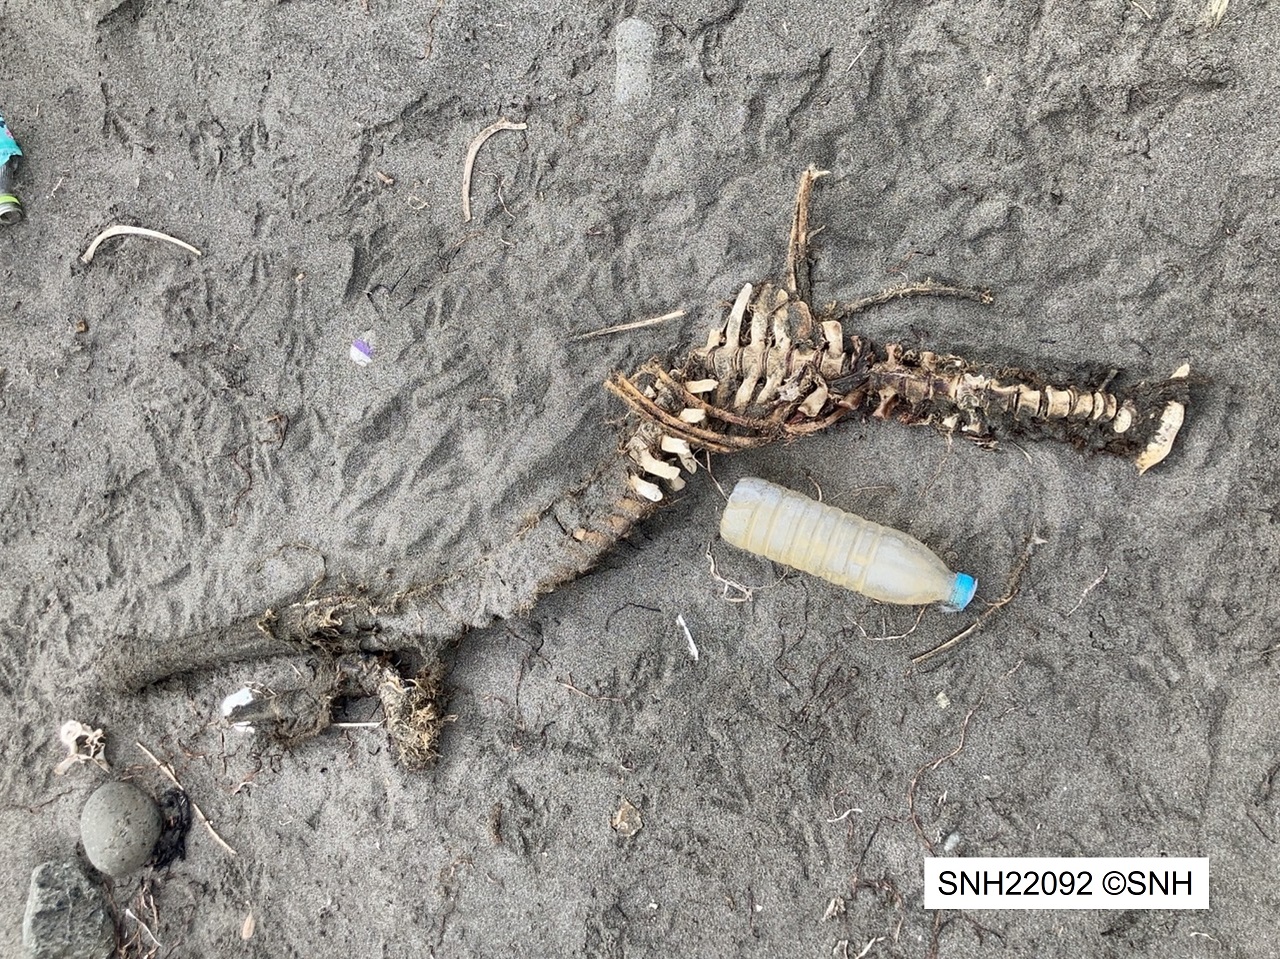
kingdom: Animalia
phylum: Chordata
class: Mammalia
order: Cetacea
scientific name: Cetacea
